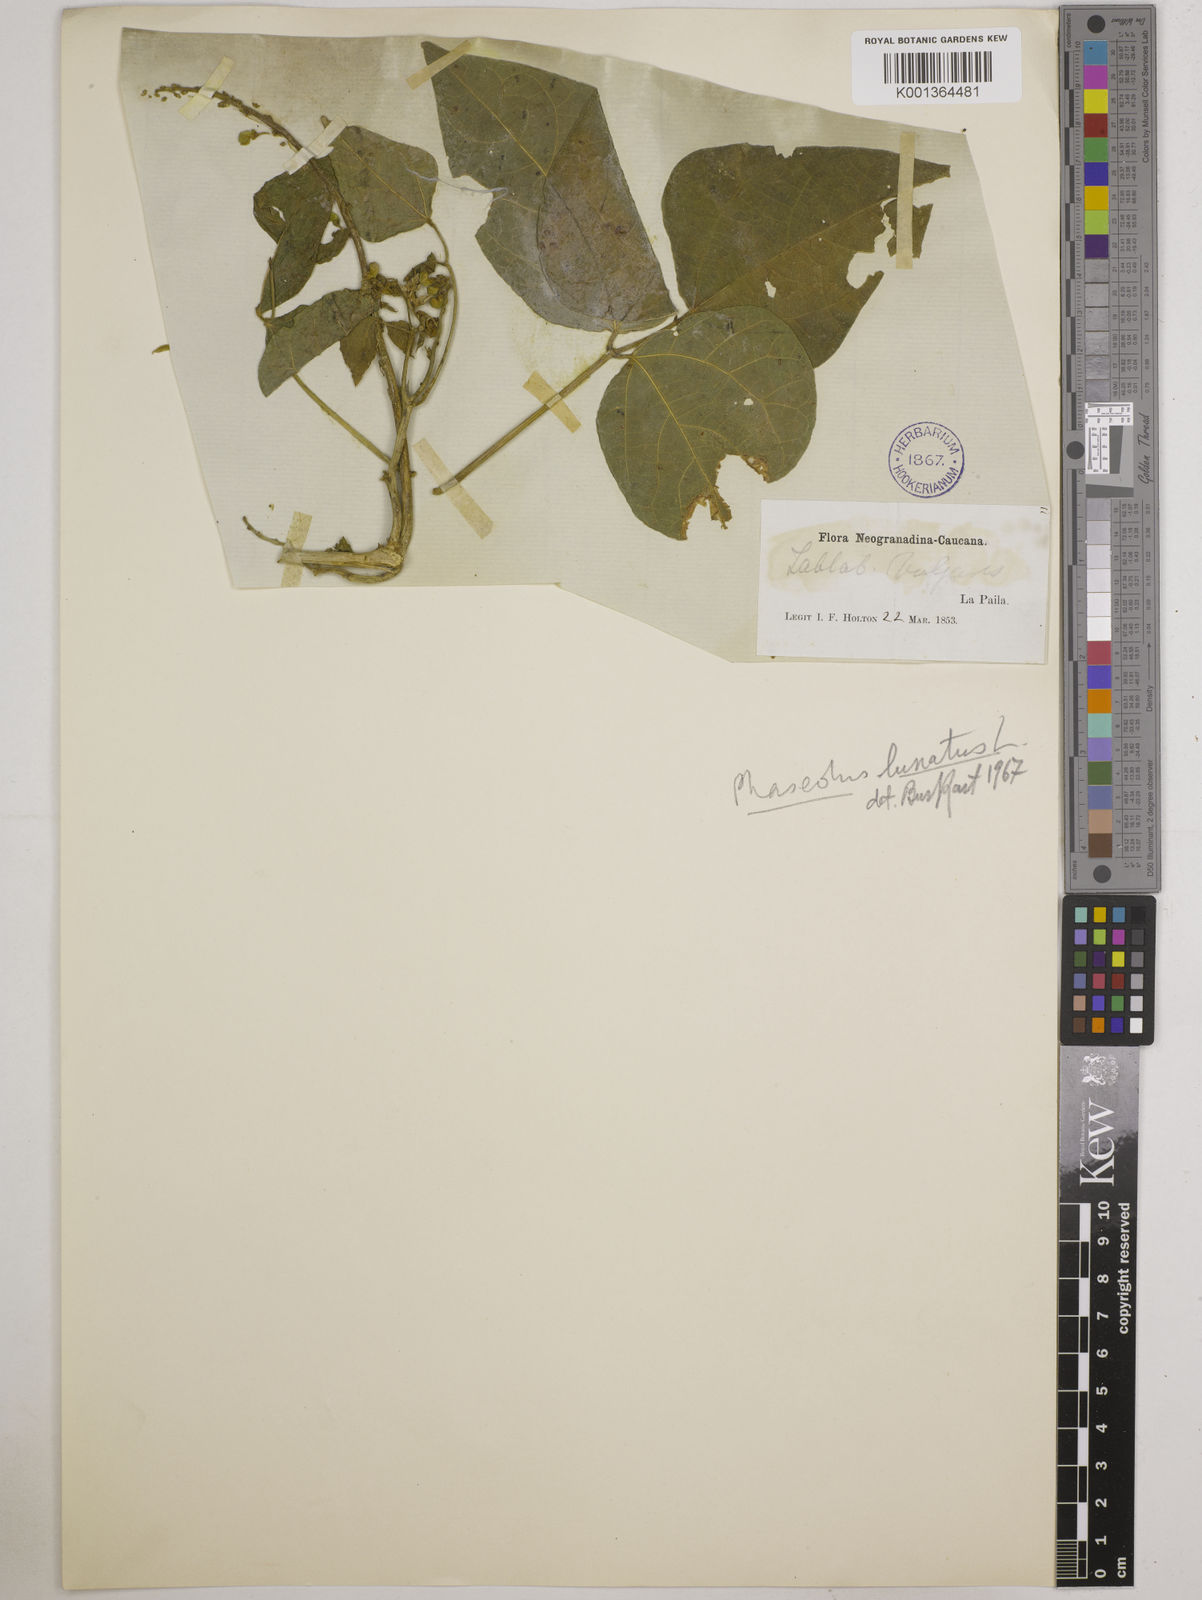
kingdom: Plantae
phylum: Tracheophyta
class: Magnoliopsida
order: Fabales
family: Fabaceae
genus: Phaseolus
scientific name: Phaseolus lunatus
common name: Sieva bean
